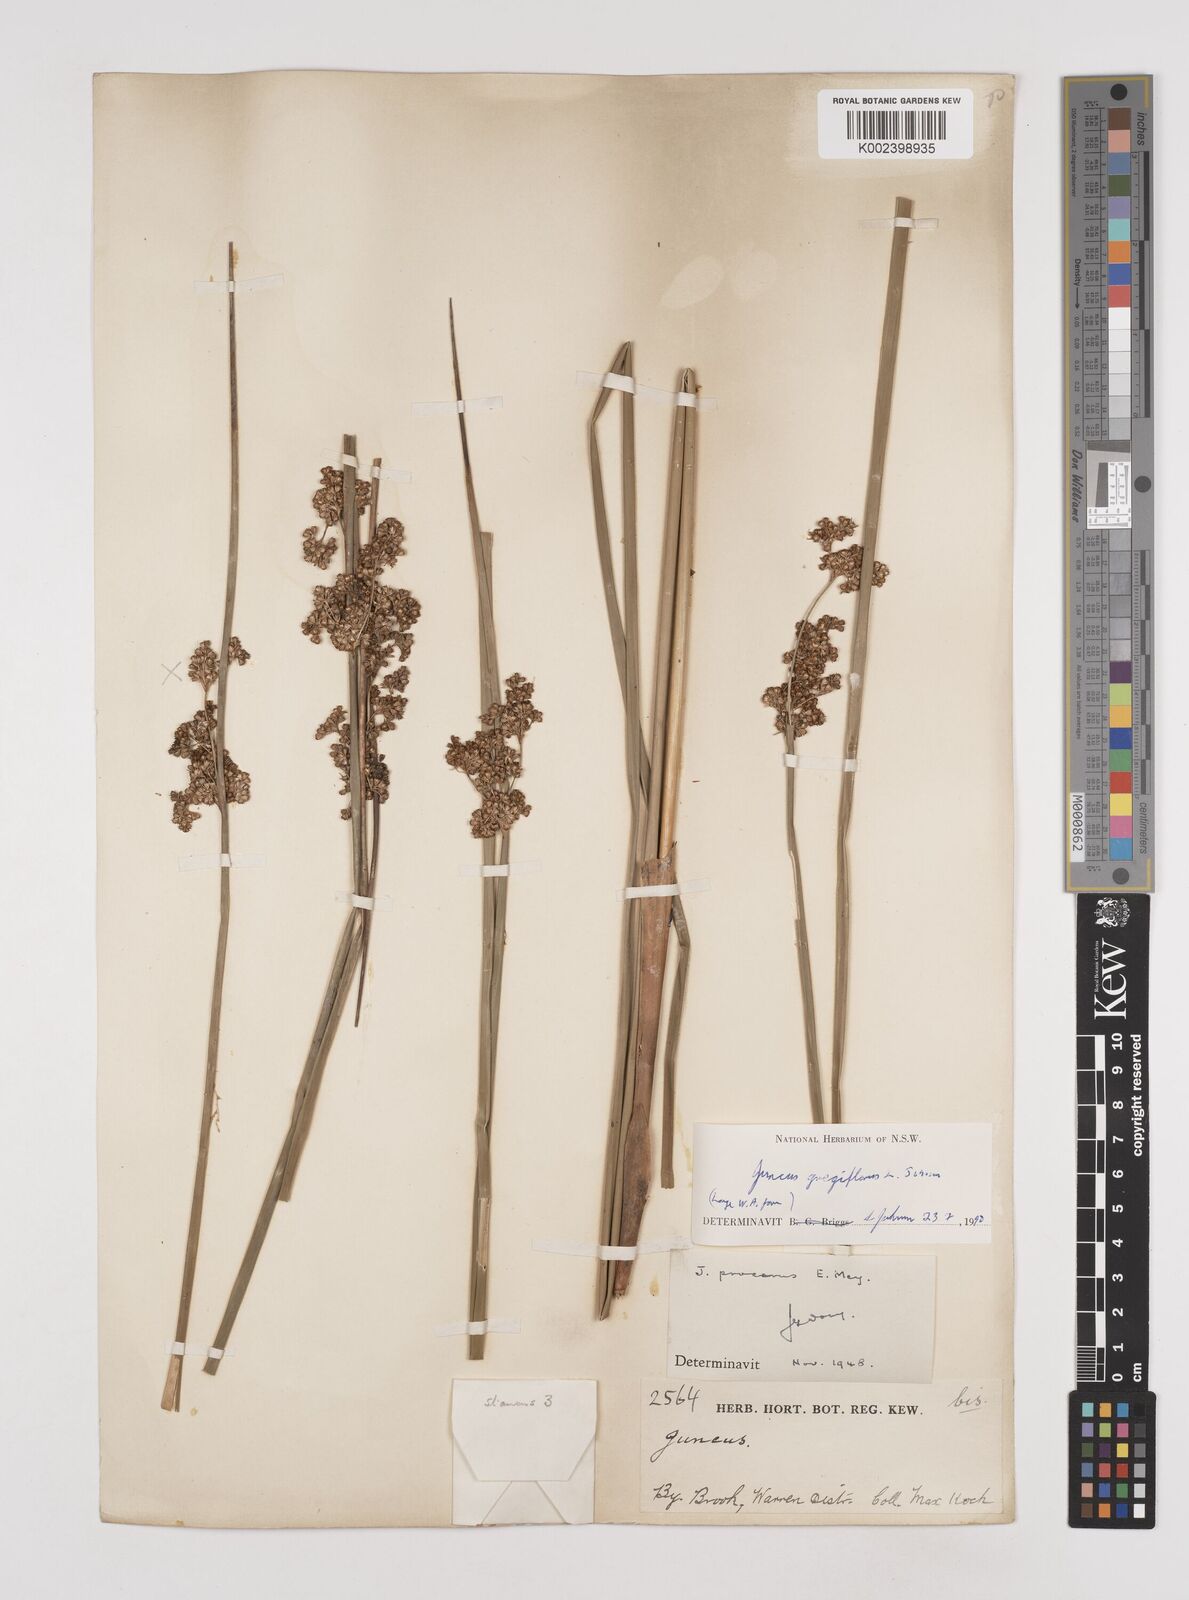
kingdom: Plantae
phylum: Tracheophyta
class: Liliopsida
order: Poales
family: Juncaceae
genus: Juncus
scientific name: Juncus gregiflorus
